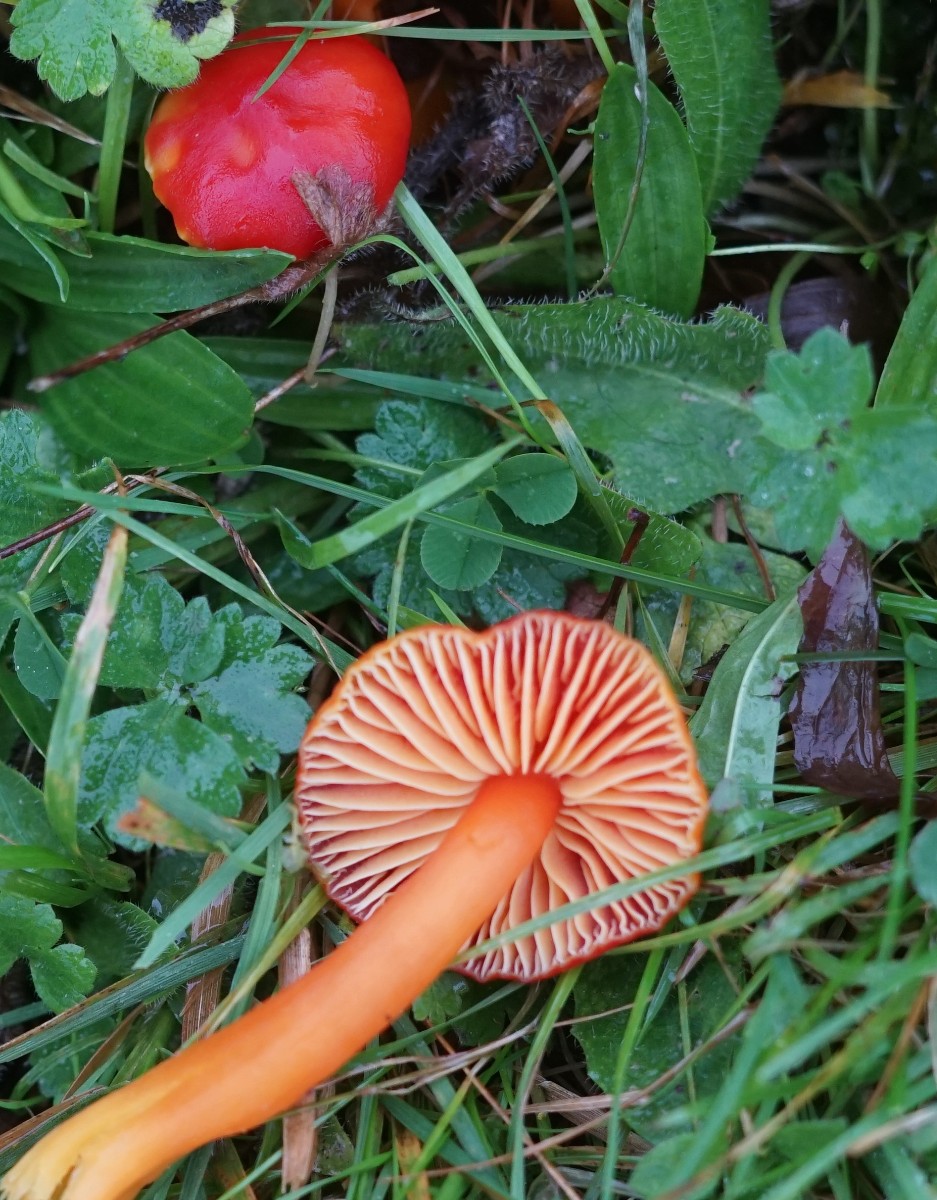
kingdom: Fungi
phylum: Basidiomycota
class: Agaricomycetes
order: Agaricales
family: Hygrophoraceae
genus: Hygrocybe
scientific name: Hygrocybe coccinea
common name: cinnober-vokshat
